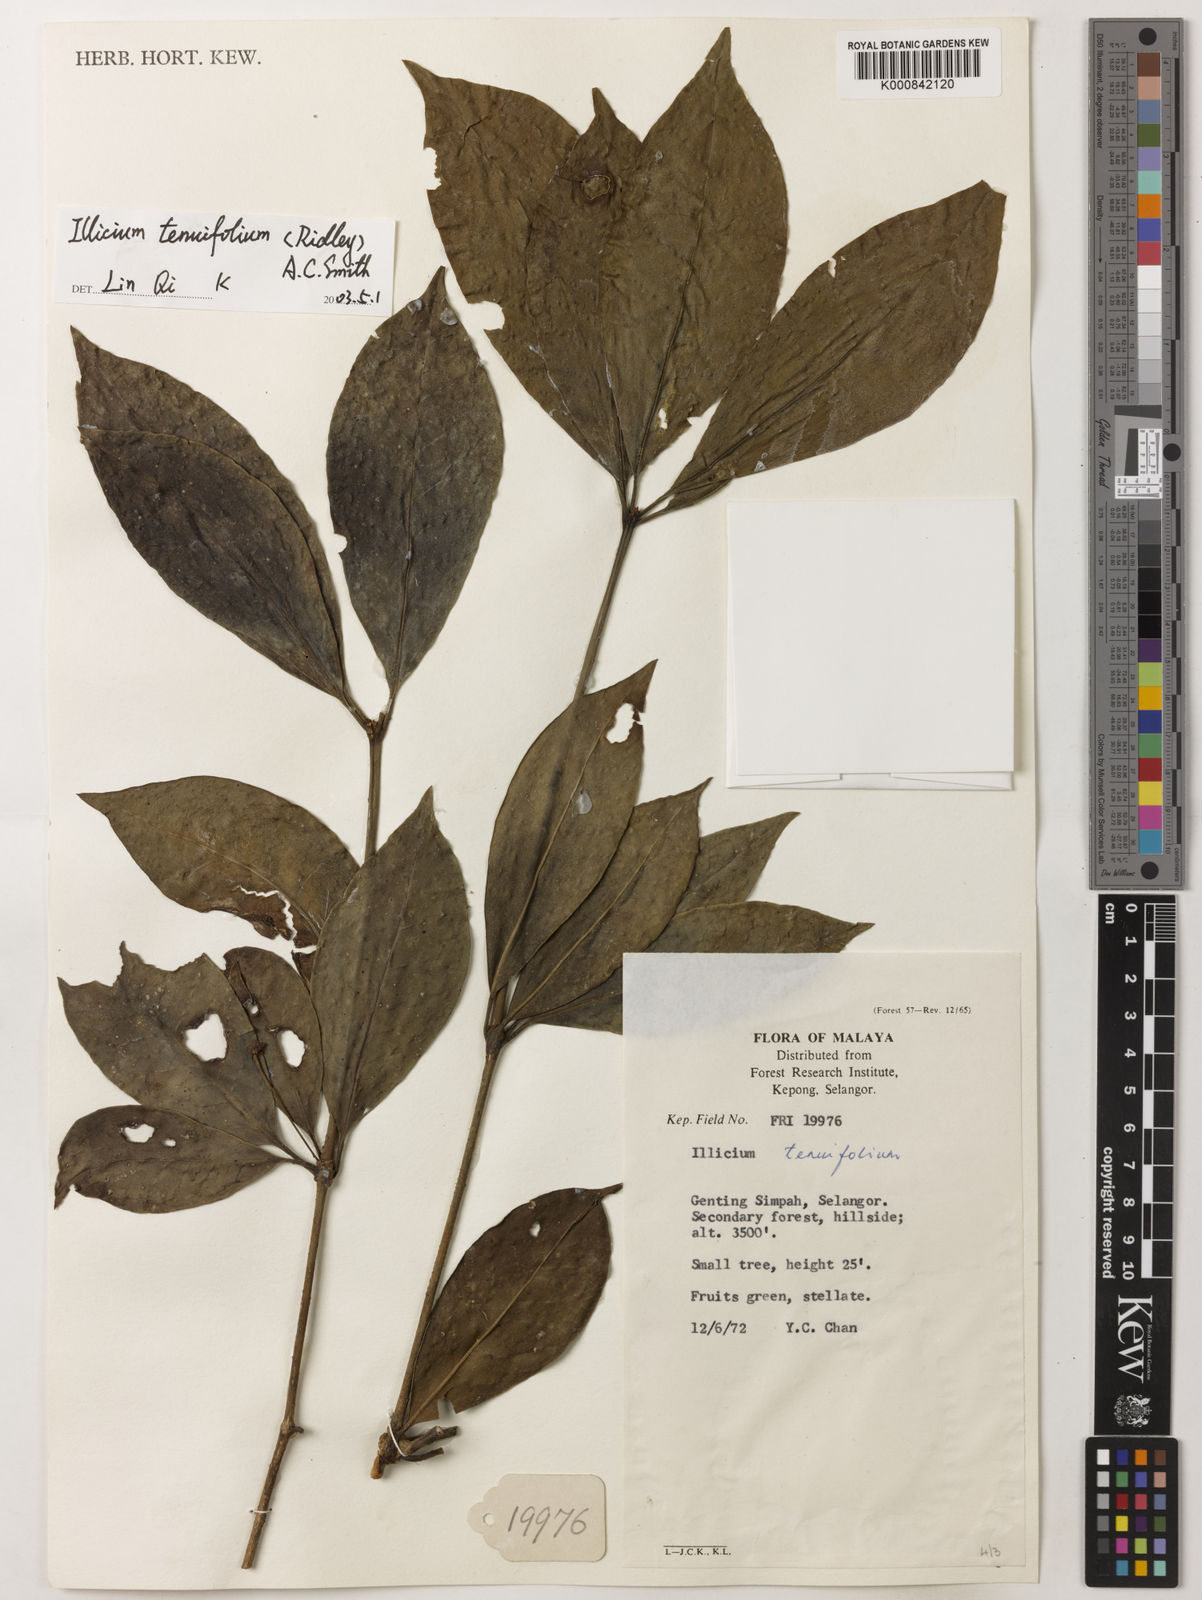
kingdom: Plantae
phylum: Tracheophyta
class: Magnoliopsida
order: Austrobaileyales
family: Schisandraceae
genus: Illicium
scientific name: Illicium tenuifolium
